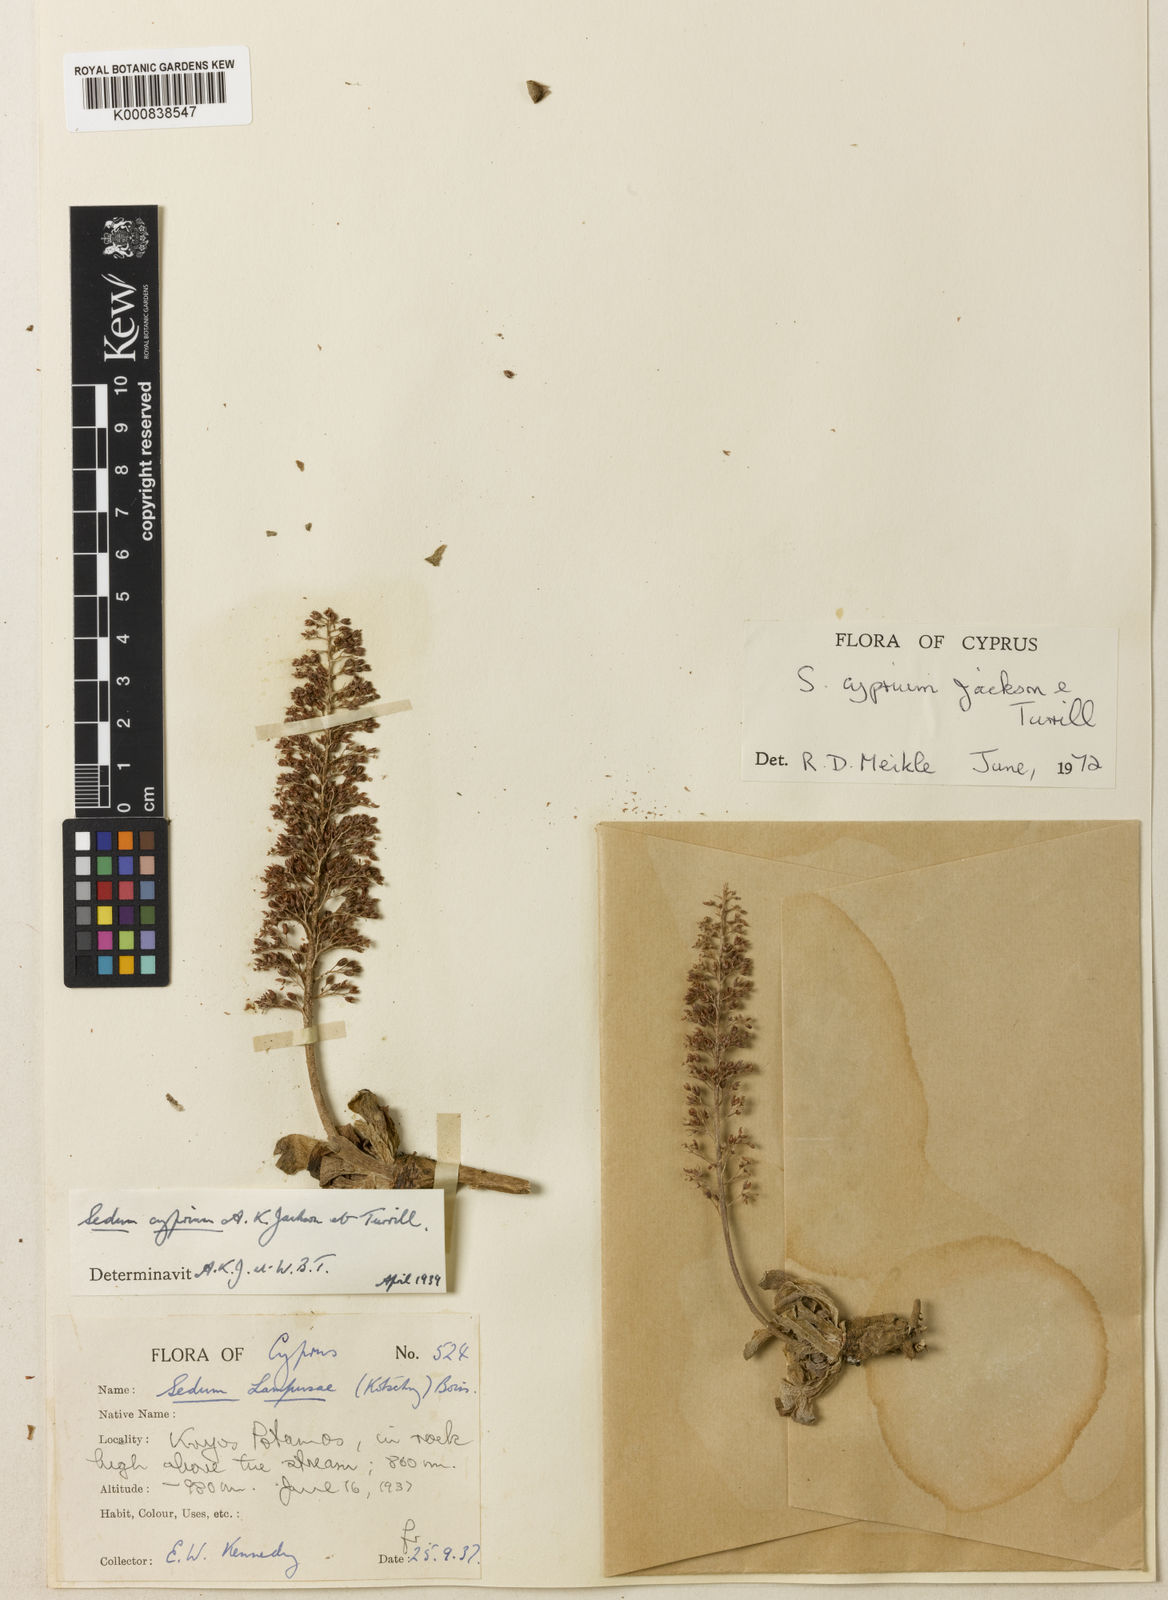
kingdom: Plantae
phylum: Tracheophyta
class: Magnoliopsida
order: Saxifragales
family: Crassulaceae
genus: Sedum
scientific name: Sedum cyprium
